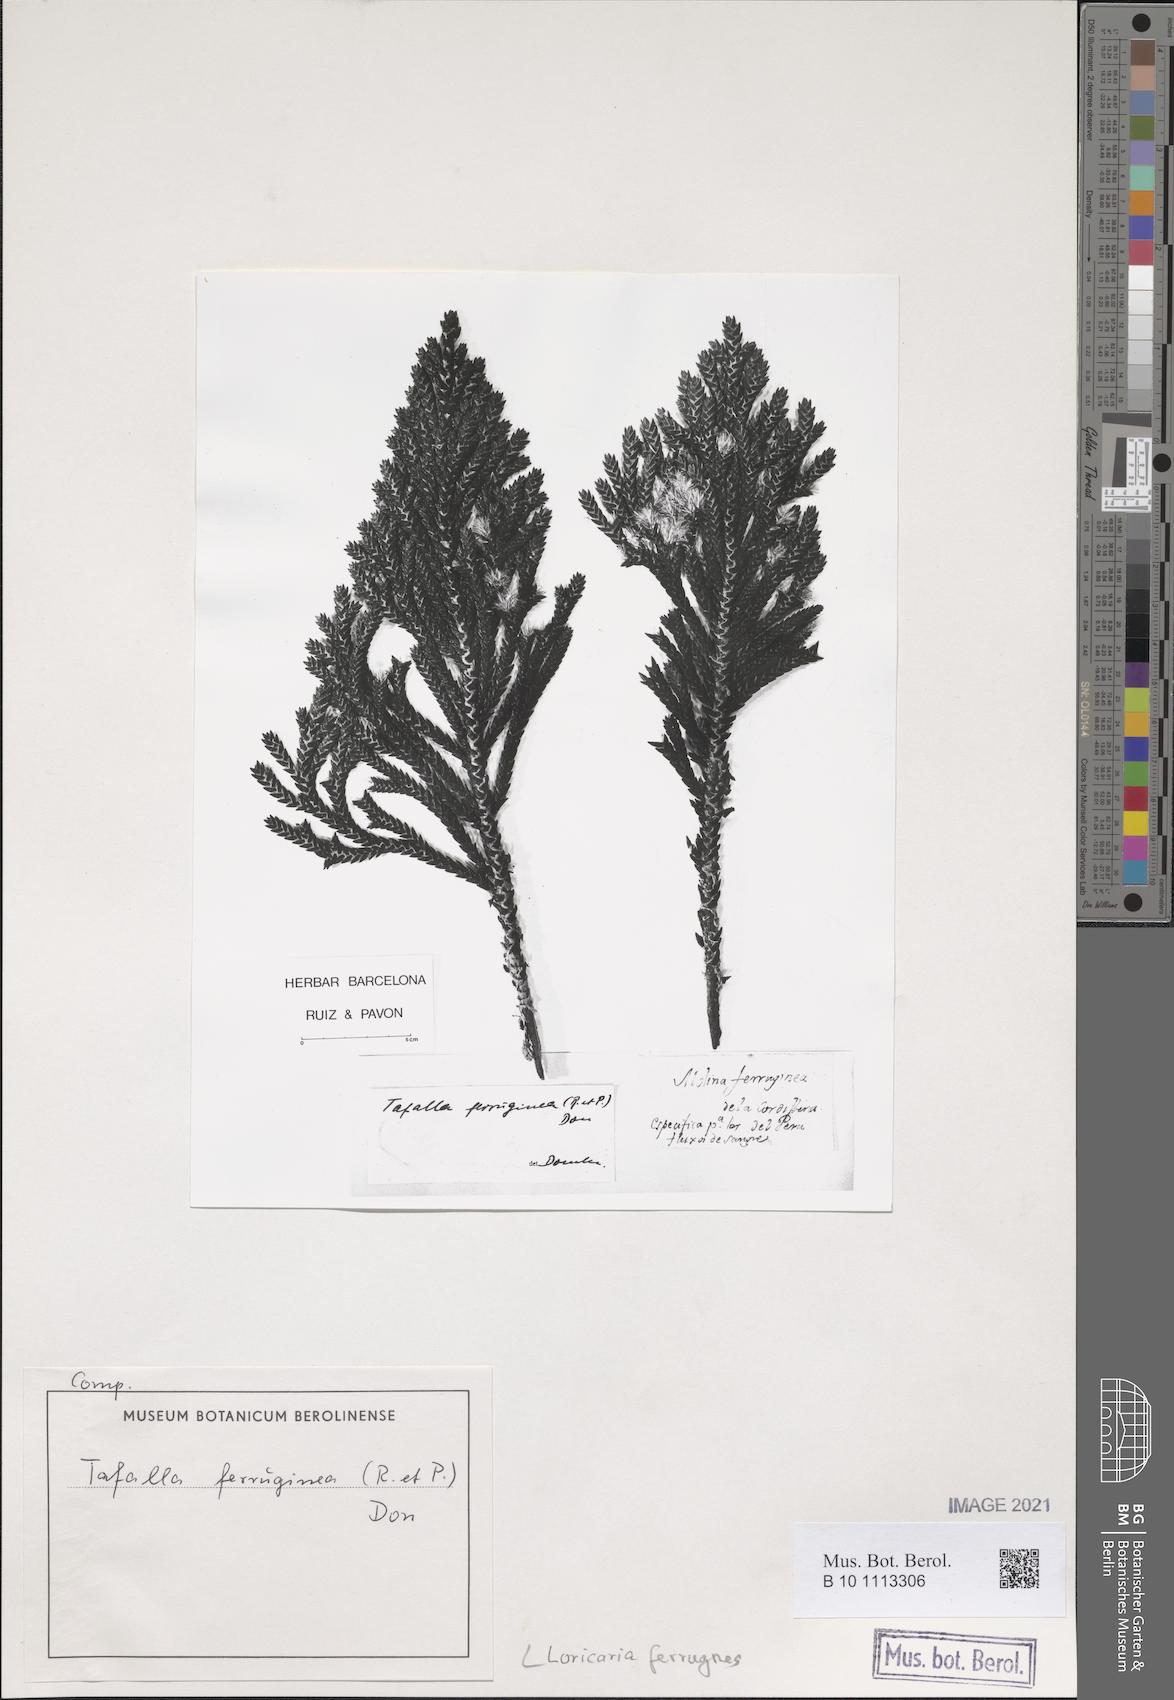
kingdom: Plantae
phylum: Tracheophyta
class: Magnoliopsida
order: Asterales
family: Asteraceae
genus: Andicolea
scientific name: Andicolea ferruginea
